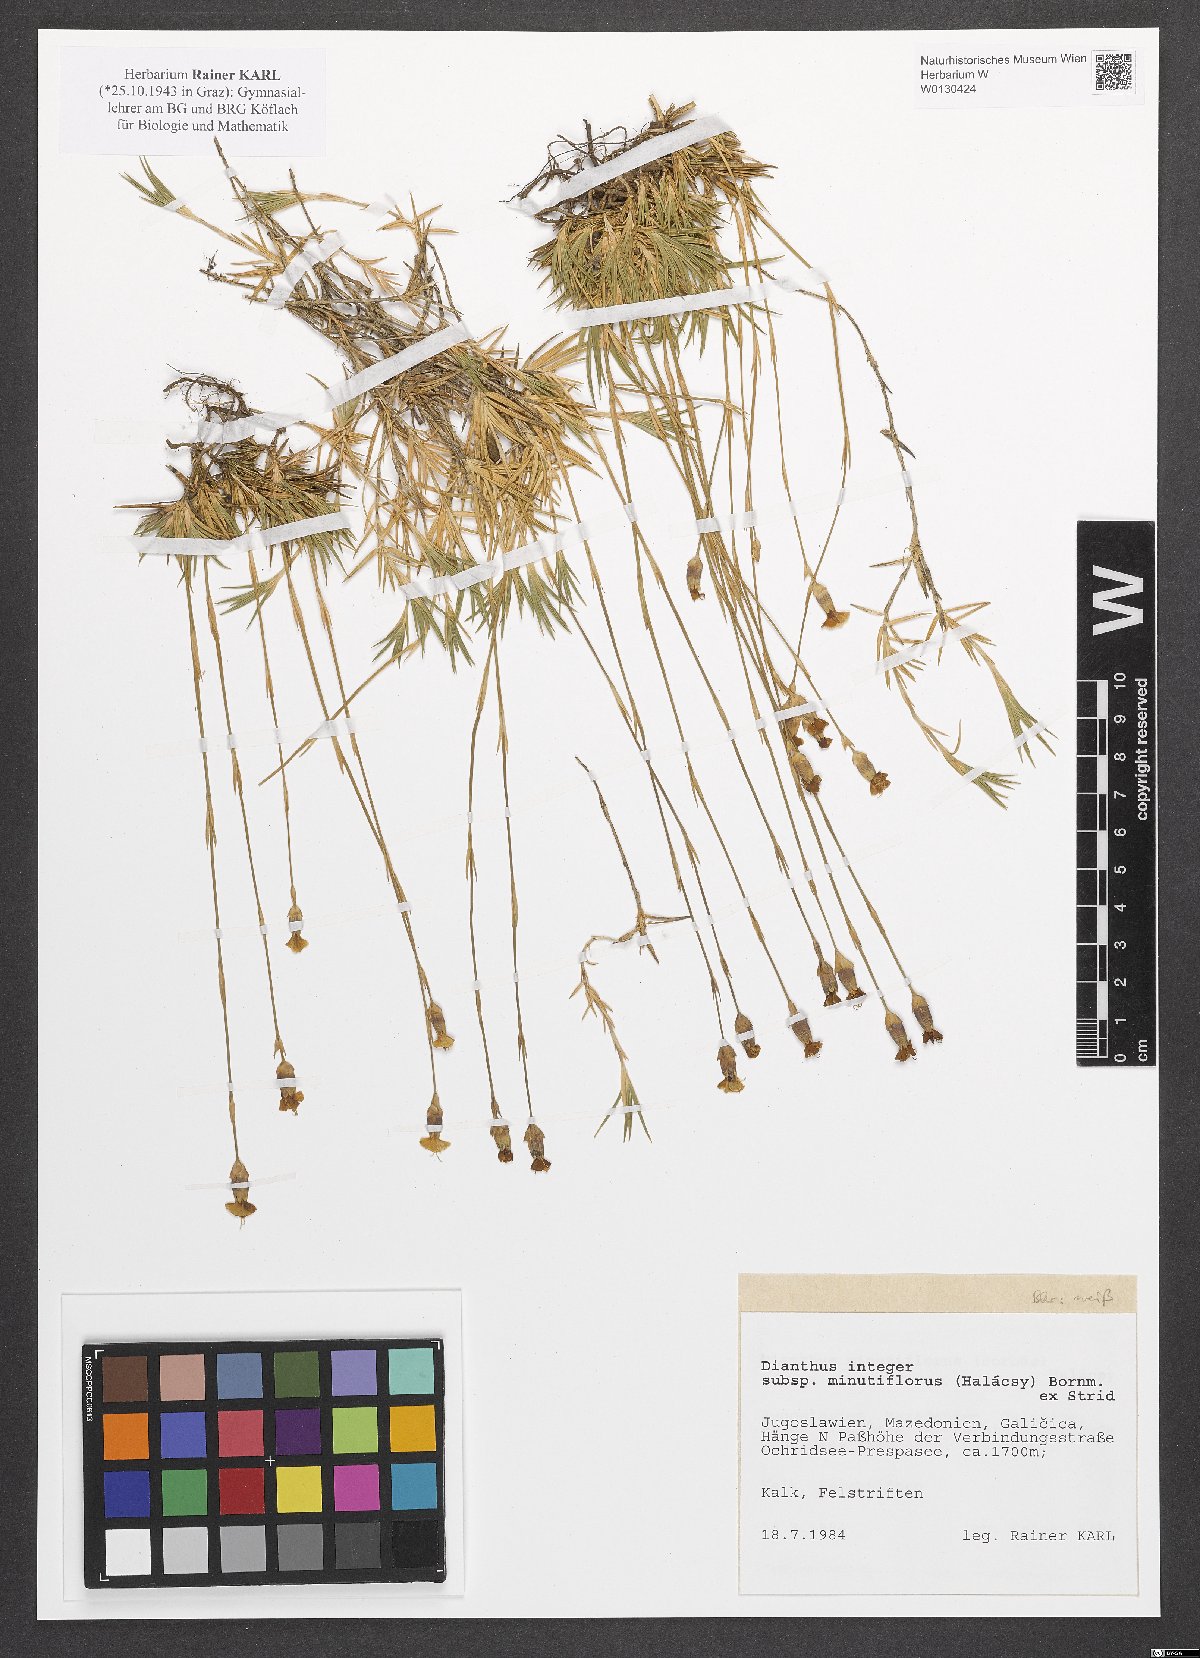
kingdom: Plantae
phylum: Tracheophyta
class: Magnoliopsida
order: Caryophyllales
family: Caryophyllaceae
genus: Dianthus
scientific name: Dianthus integer
